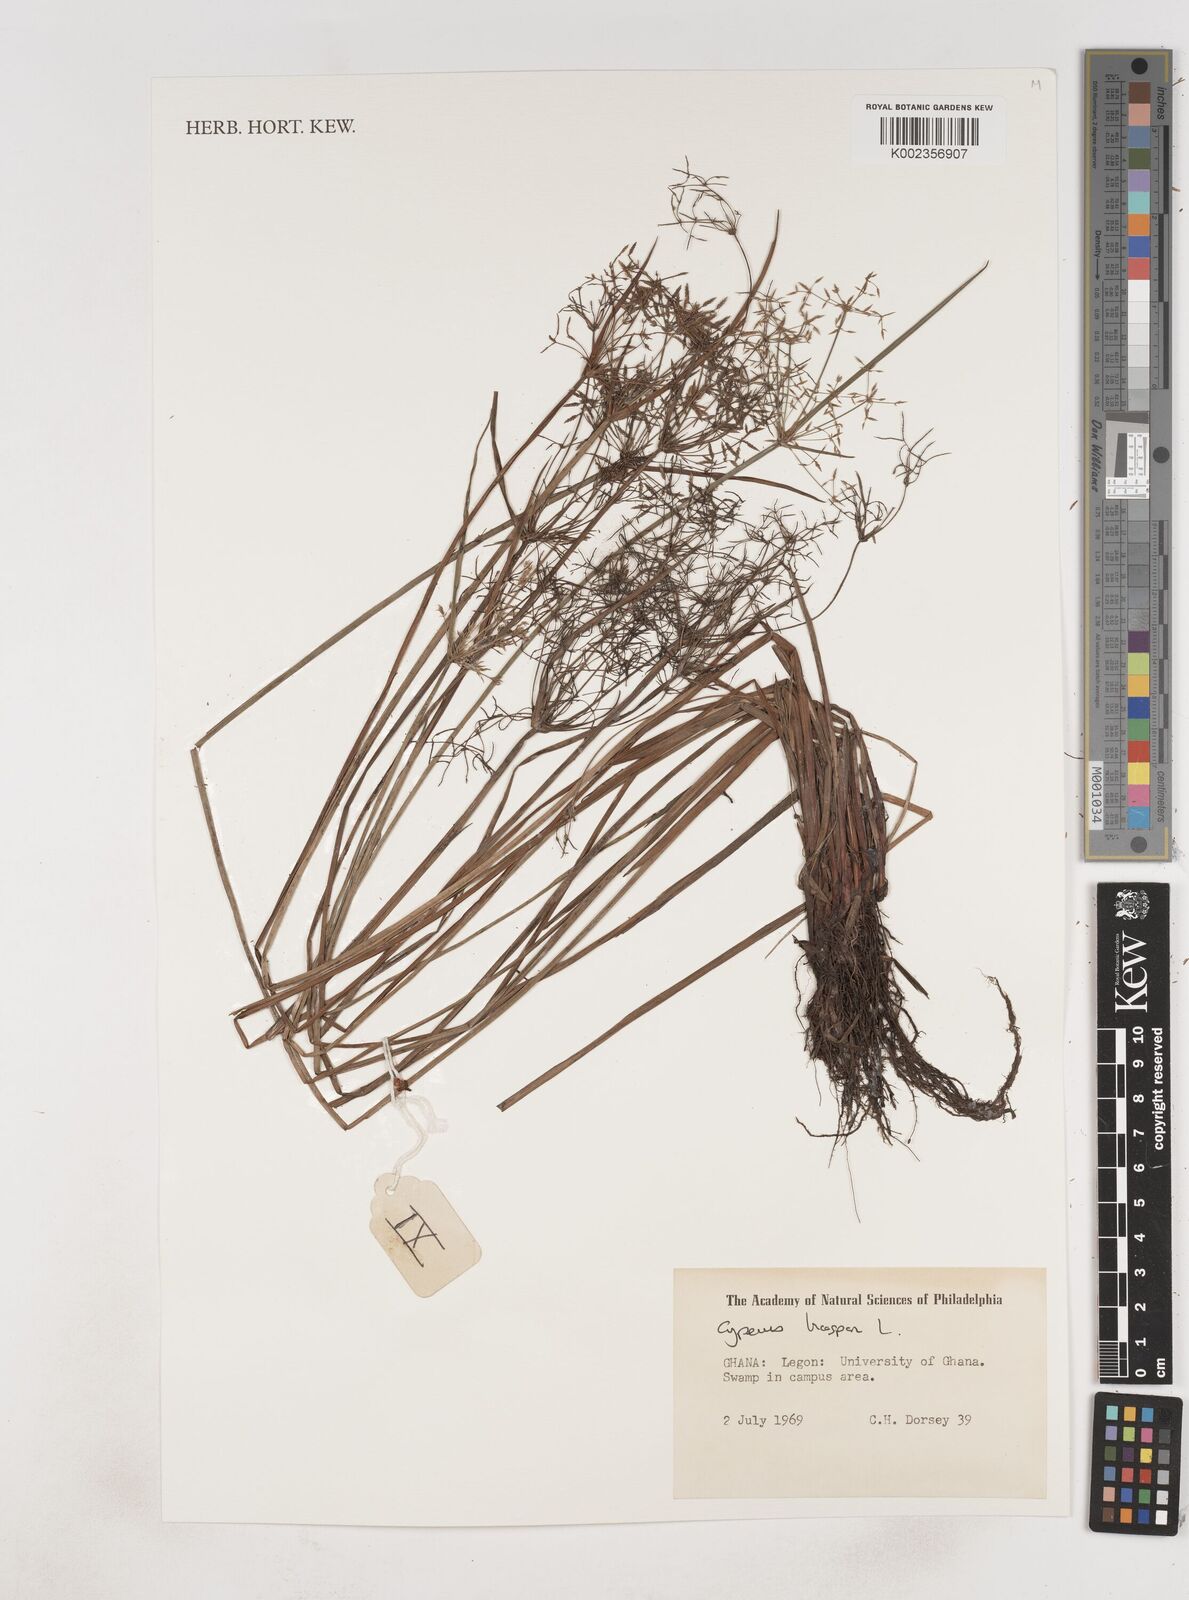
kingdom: Plantae
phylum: Tracheophyta
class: Liliopsida
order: Poales
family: Cyperaceae
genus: Cyperus
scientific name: Cyperus haspan
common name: Haspan flatsedge
